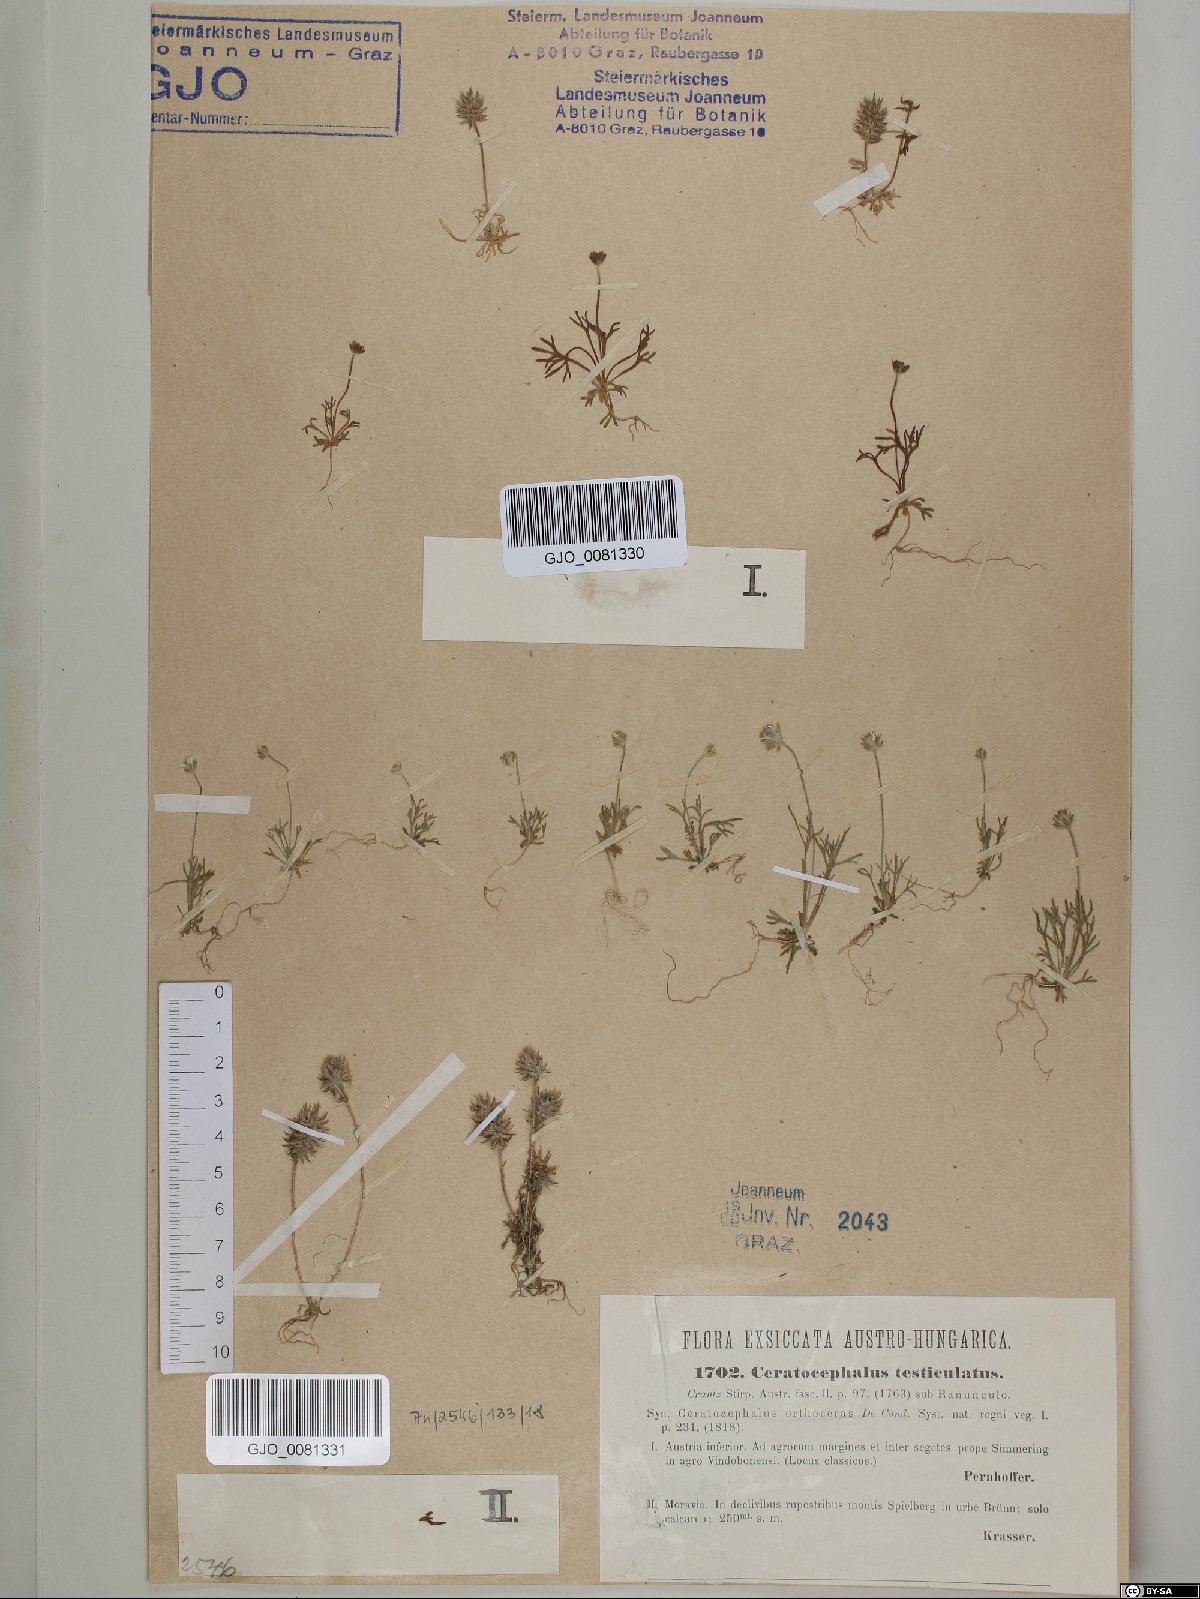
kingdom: Plantae
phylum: Tracheophyta
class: Magnoliopsida
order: Ranunculales
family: Ranunculaceae
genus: Ceratocephala
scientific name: Ceratocephala orthoceras
